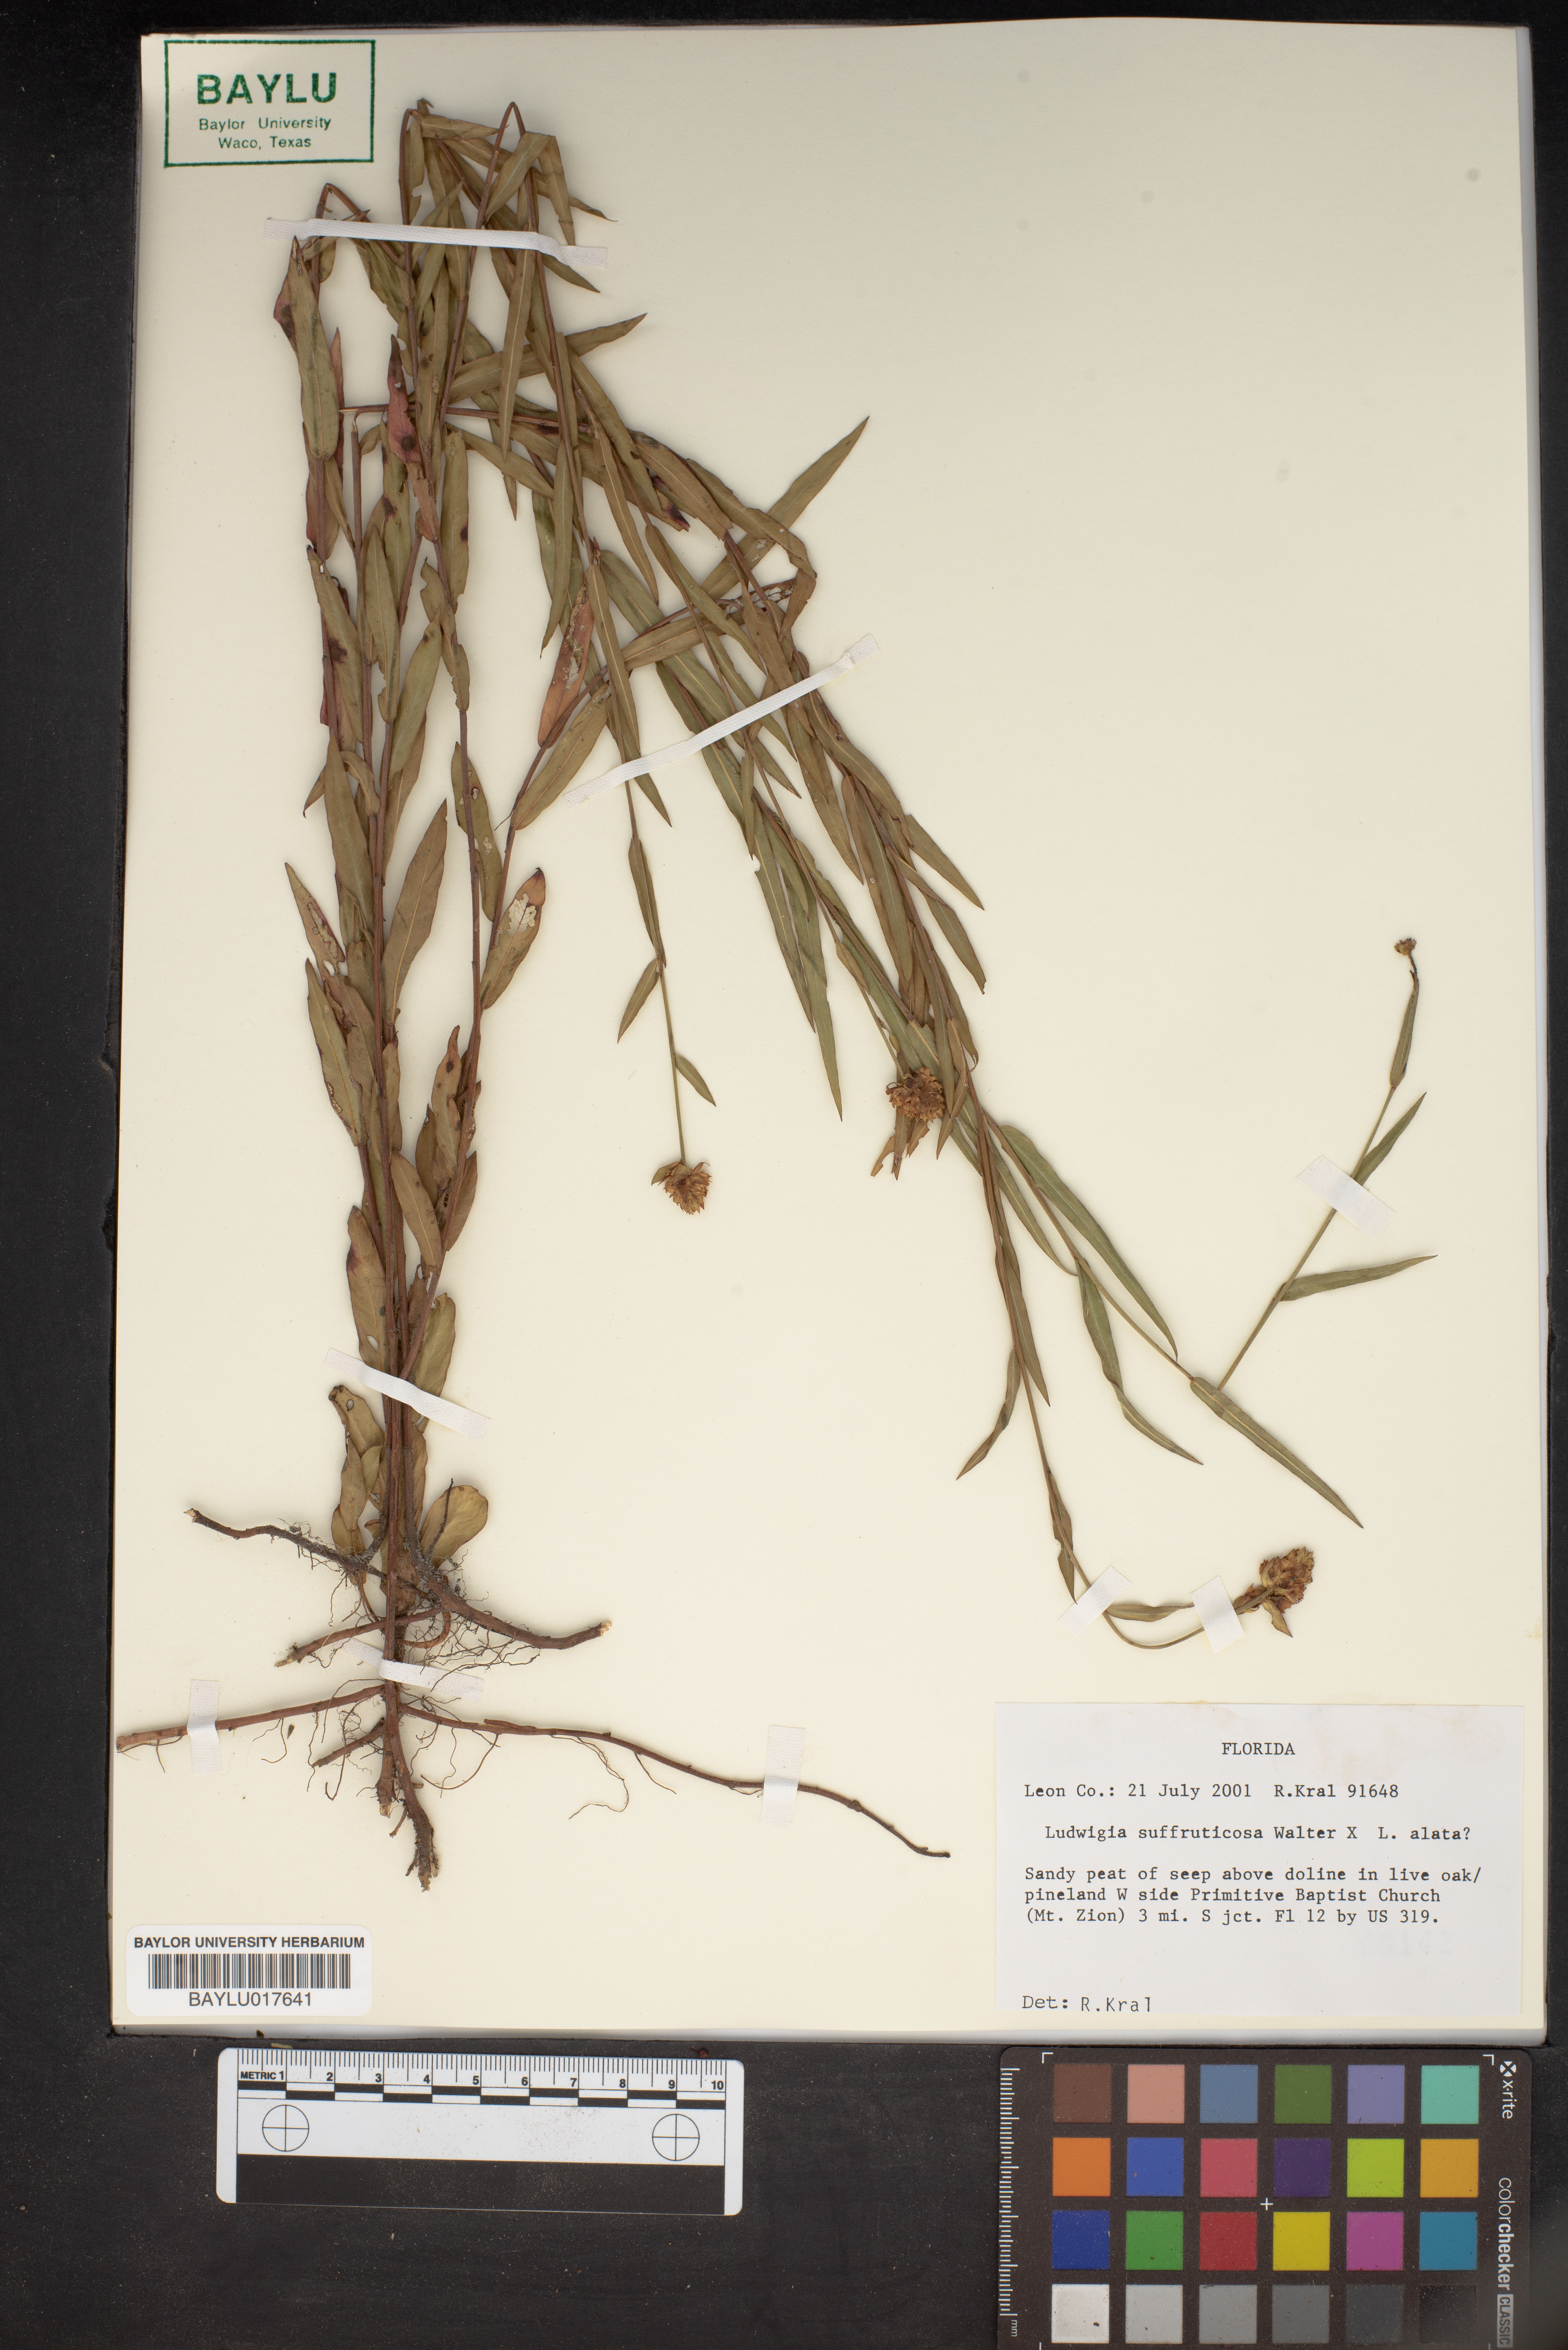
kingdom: Plantae
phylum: Tracheophyta
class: Magnoliopsida
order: Myrtales
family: Onagraceae
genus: Ludwigia
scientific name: Ludwigia suffruticosa
